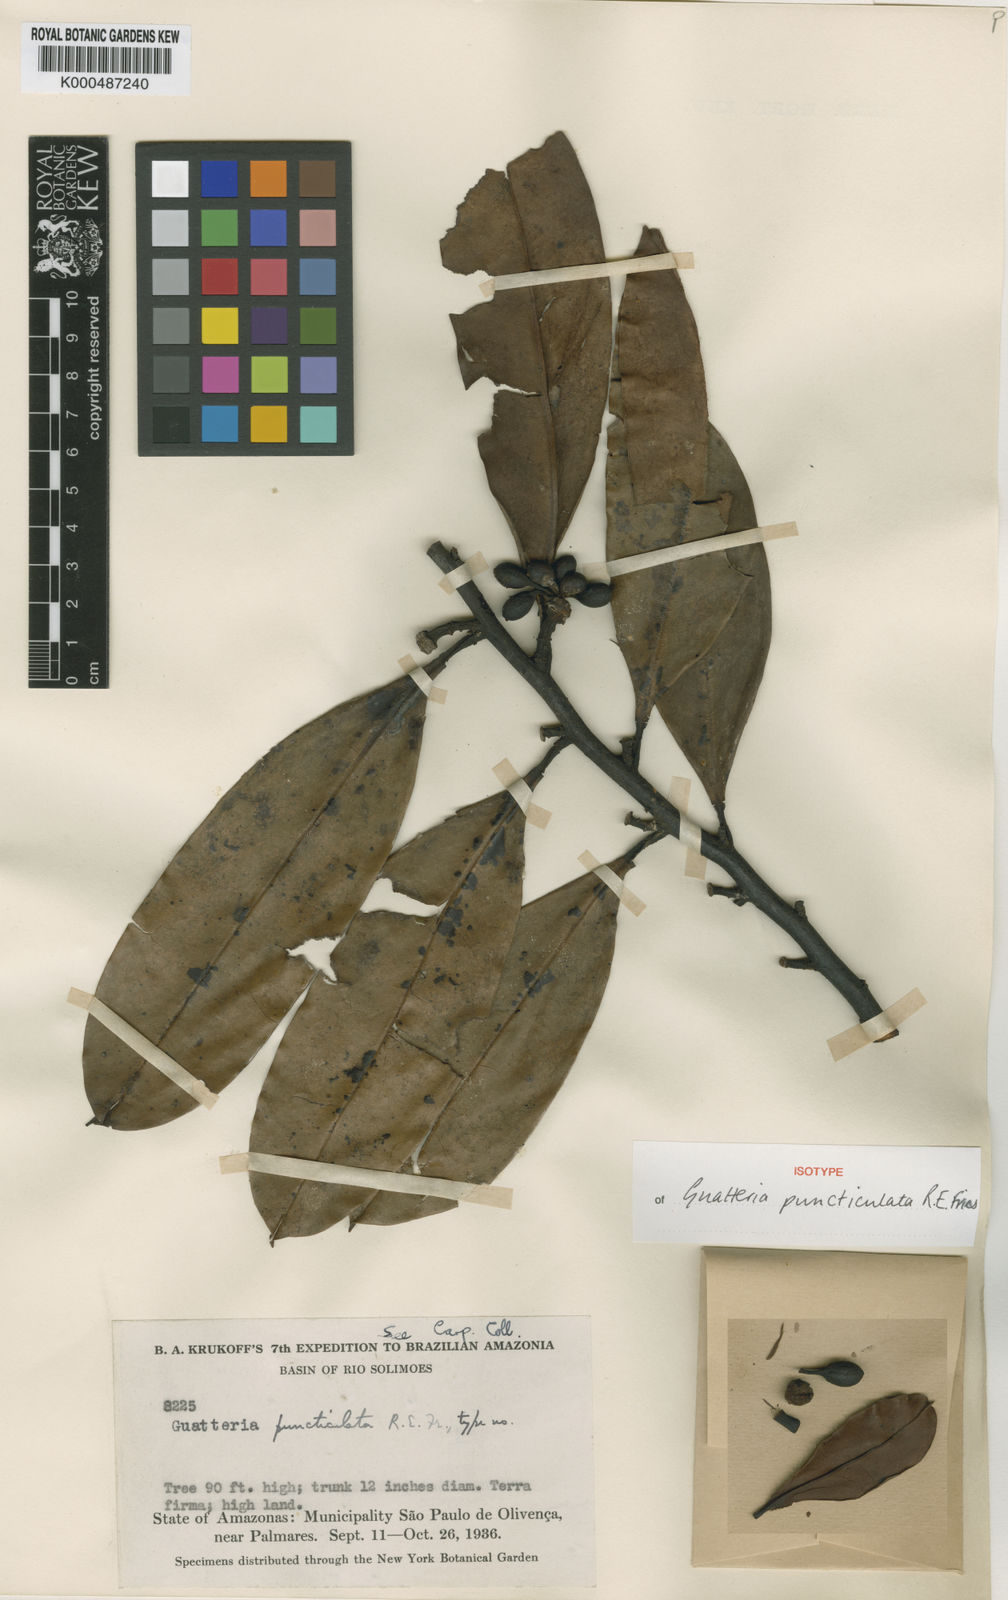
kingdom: Plantae
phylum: Tracheophyta
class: Magnoliopsida
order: Magnoliales
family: Annonaceae
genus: Guatteria
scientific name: Guatteria modesta
